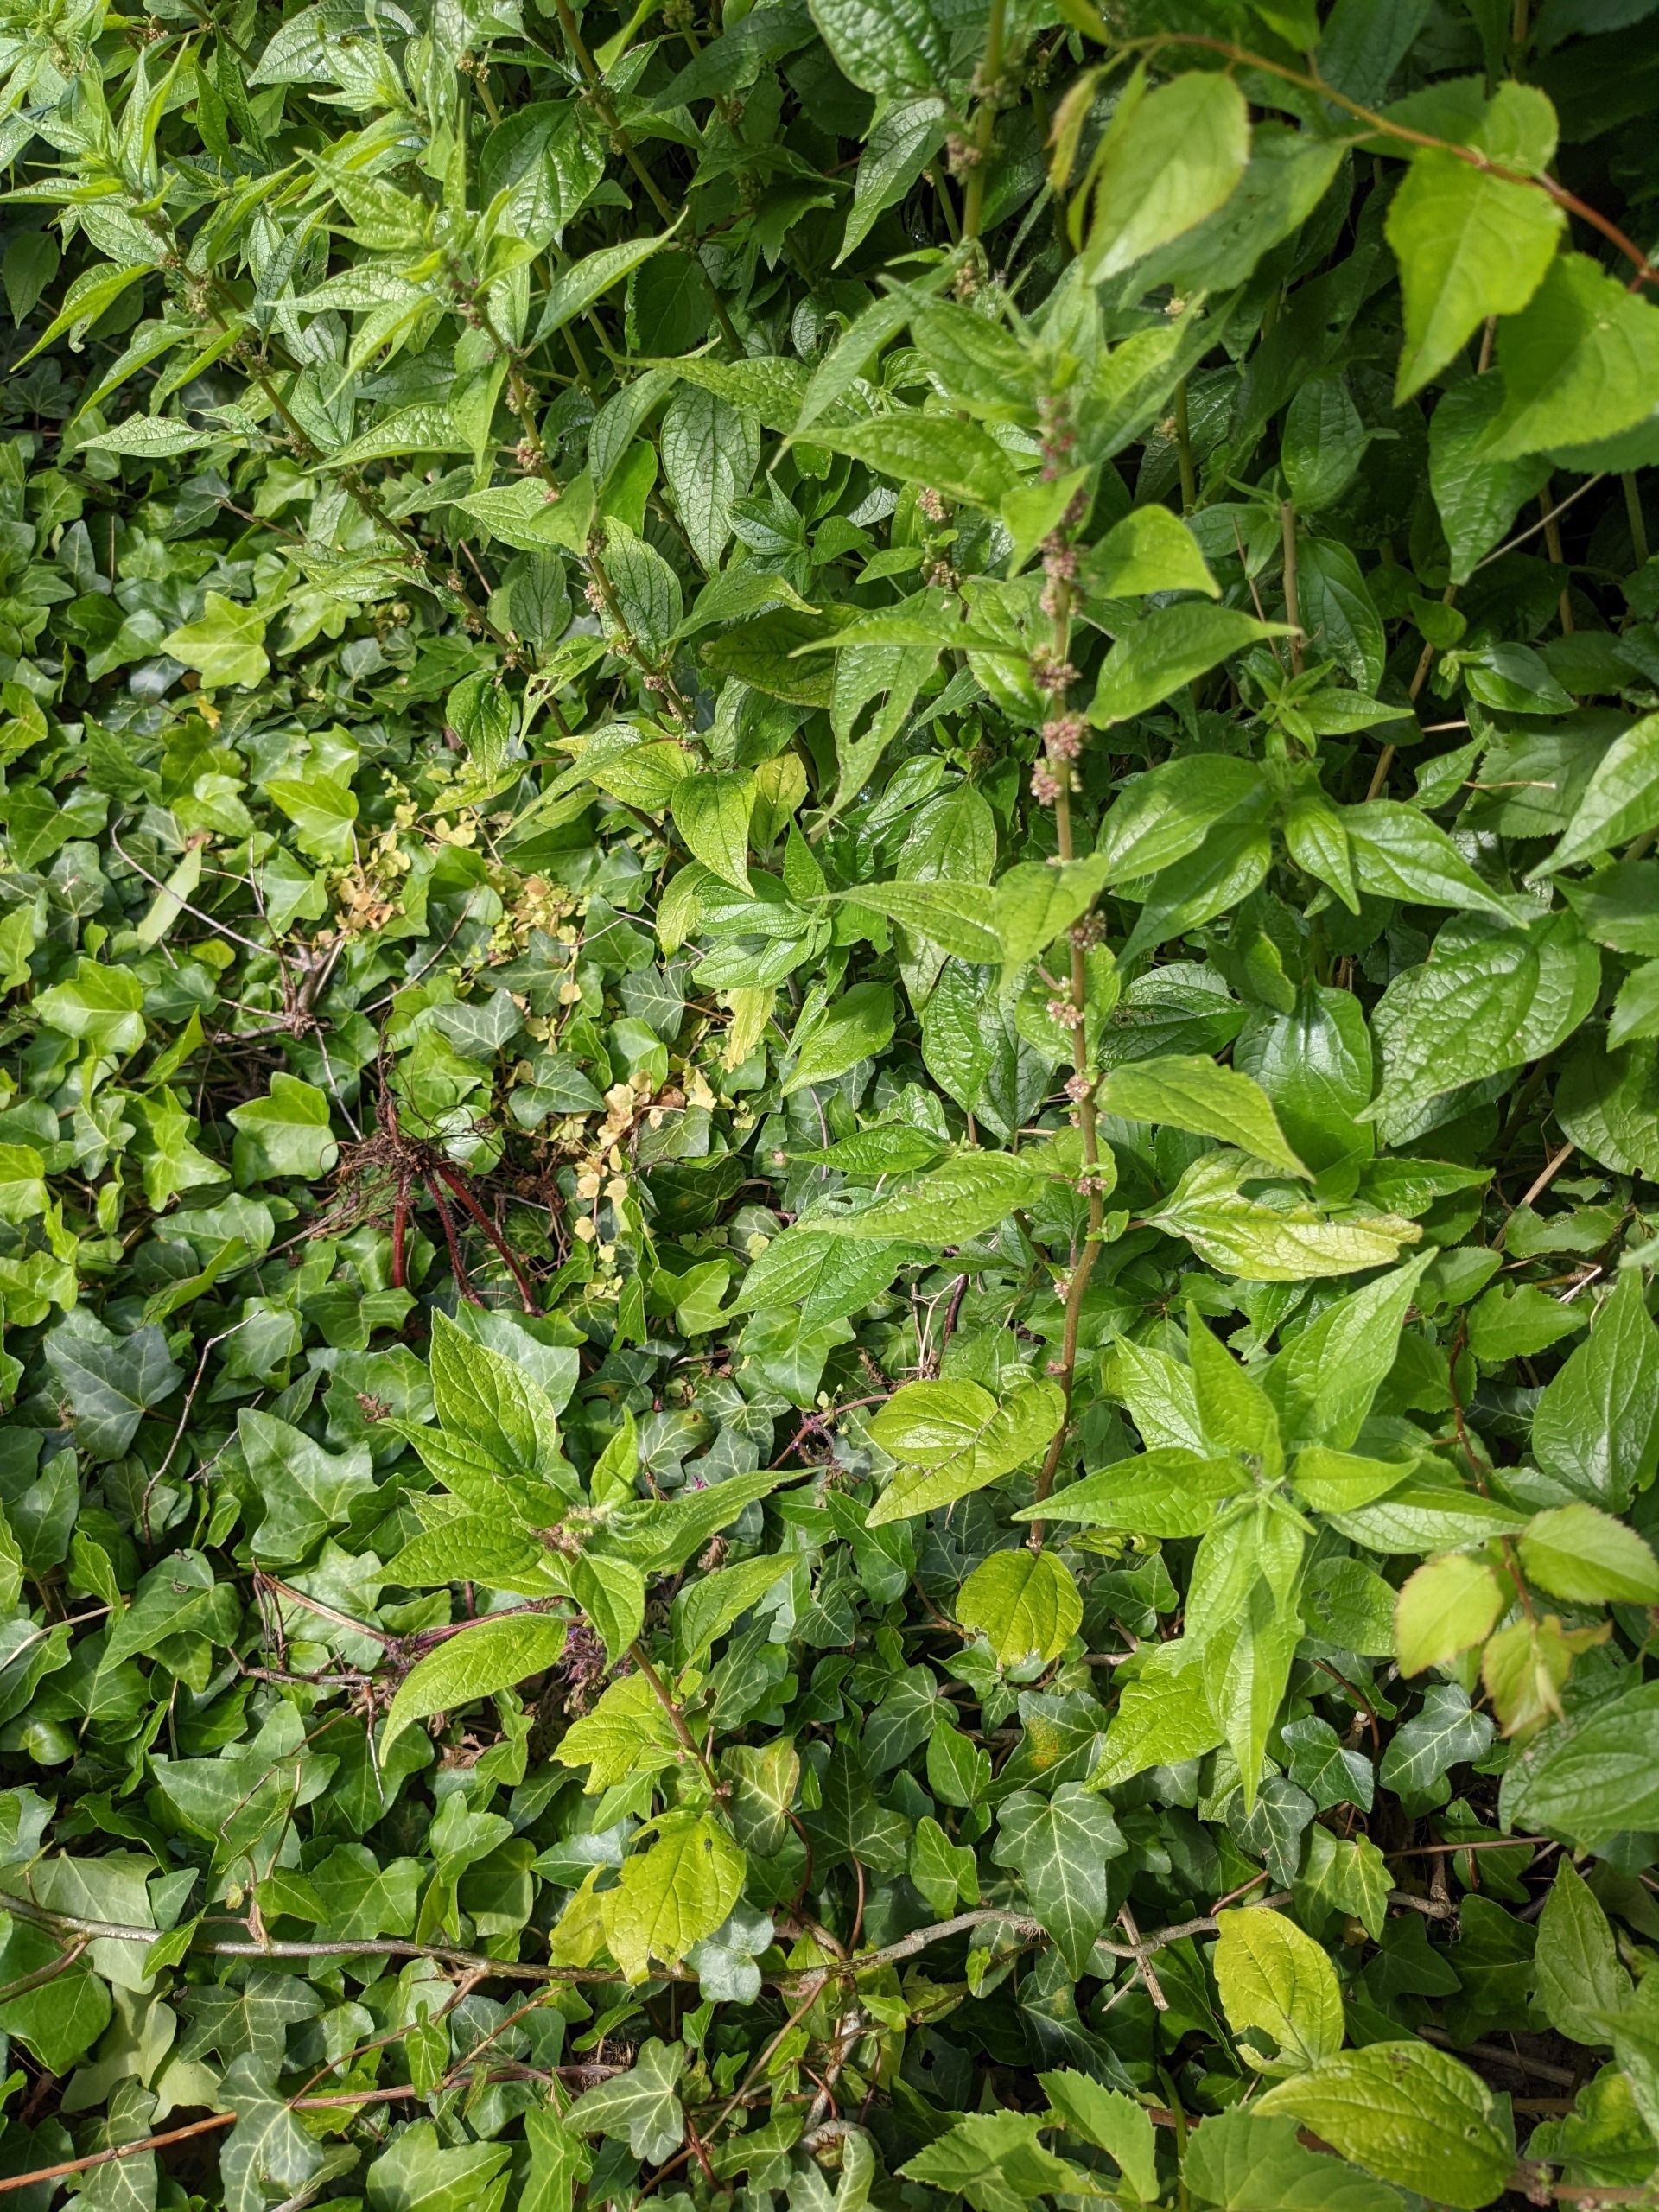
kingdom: Plantae
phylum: Tracheophyta
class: Magnoliopsida
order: Rosales
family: Urticaceae
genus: Parietaria
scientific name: Parietaria officinalis
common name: Almindelig springknap
